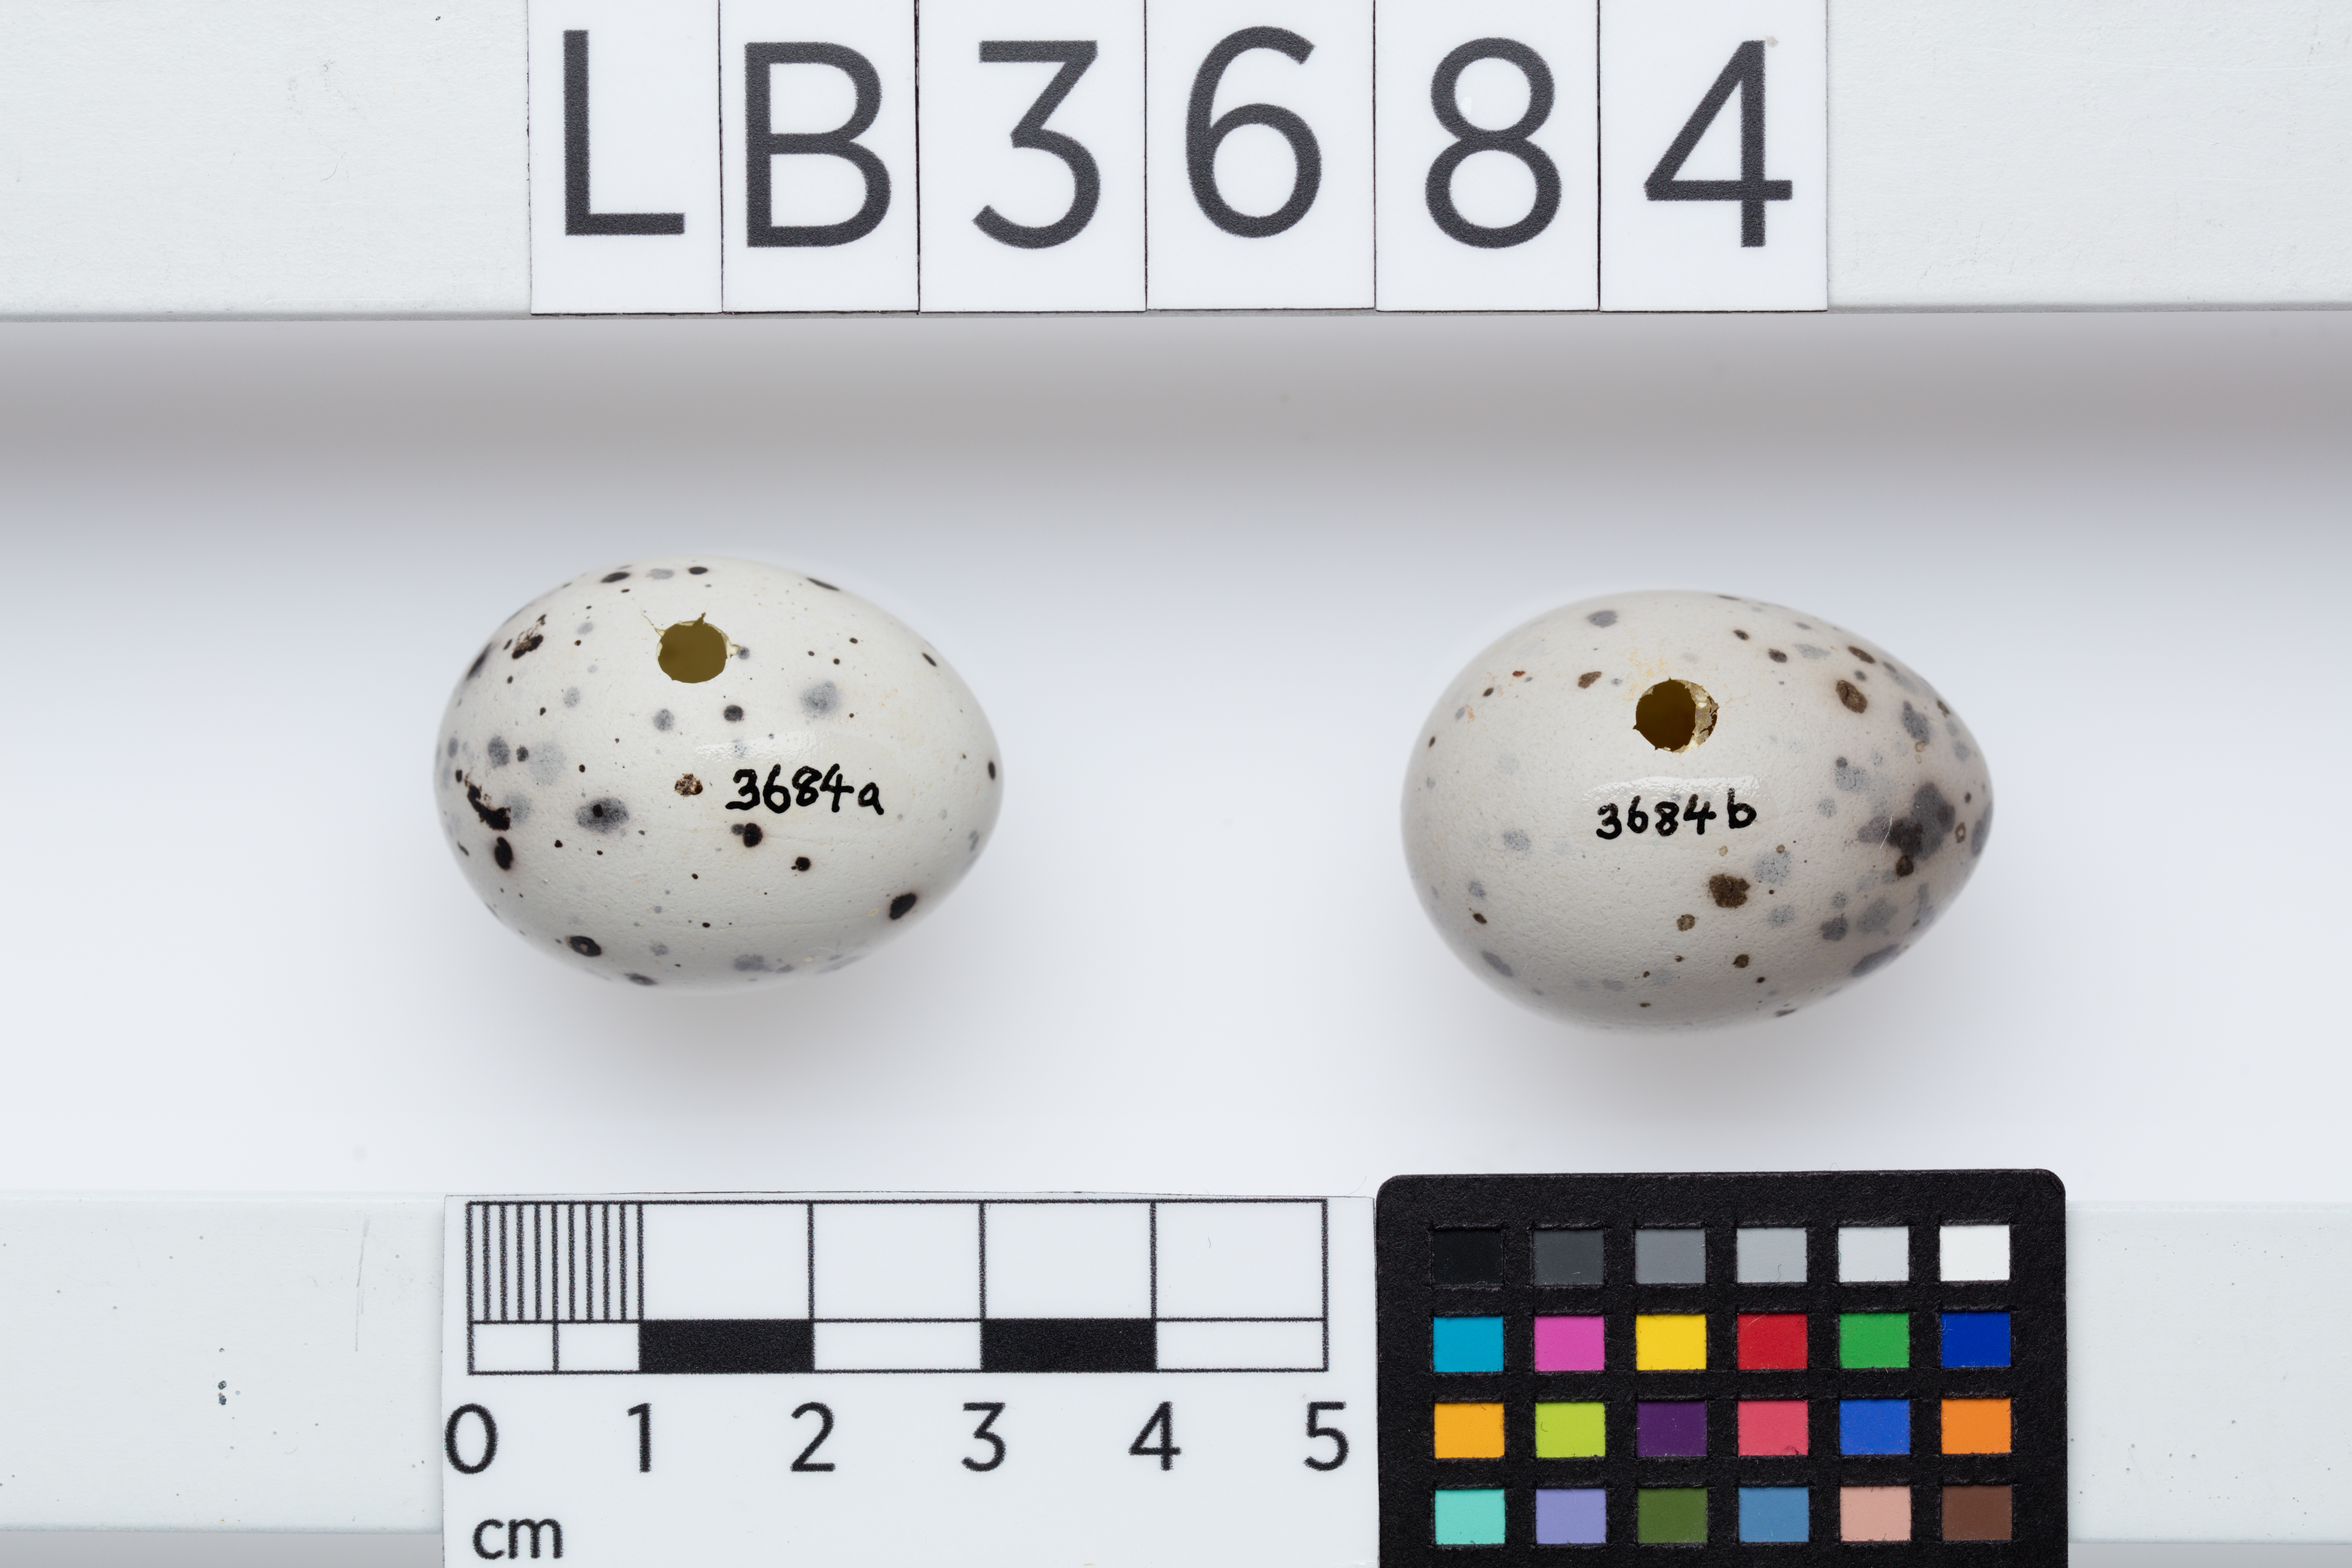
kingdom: Animalia
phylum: Chordata
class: Aves
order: Passeriformes
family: Callaeatidae
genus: Callaeas
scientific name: Callaeas cinereus
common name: South island kokako
